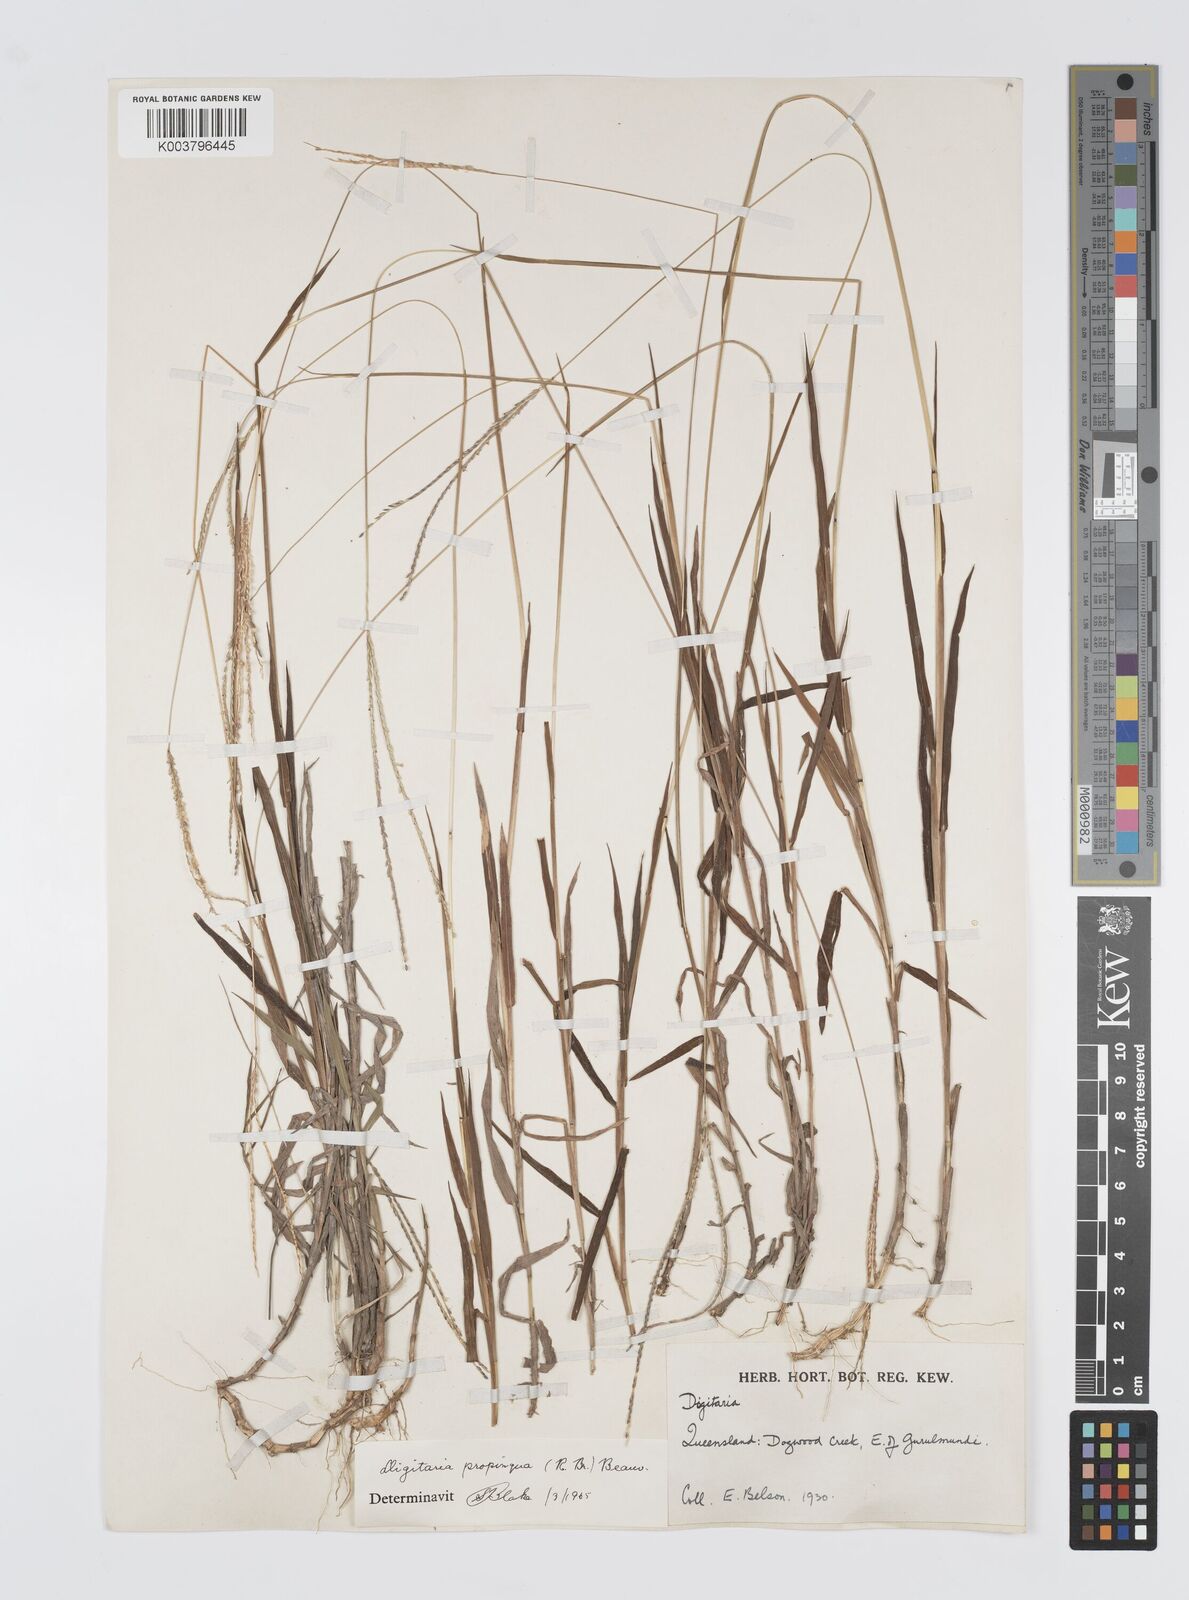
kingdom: Plantae
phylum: Tracheophyta
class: Liliopsida
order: Poales
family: Poaceae
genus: Digitaria
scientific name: Digitaria longiflora
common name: Wire crabgrass
